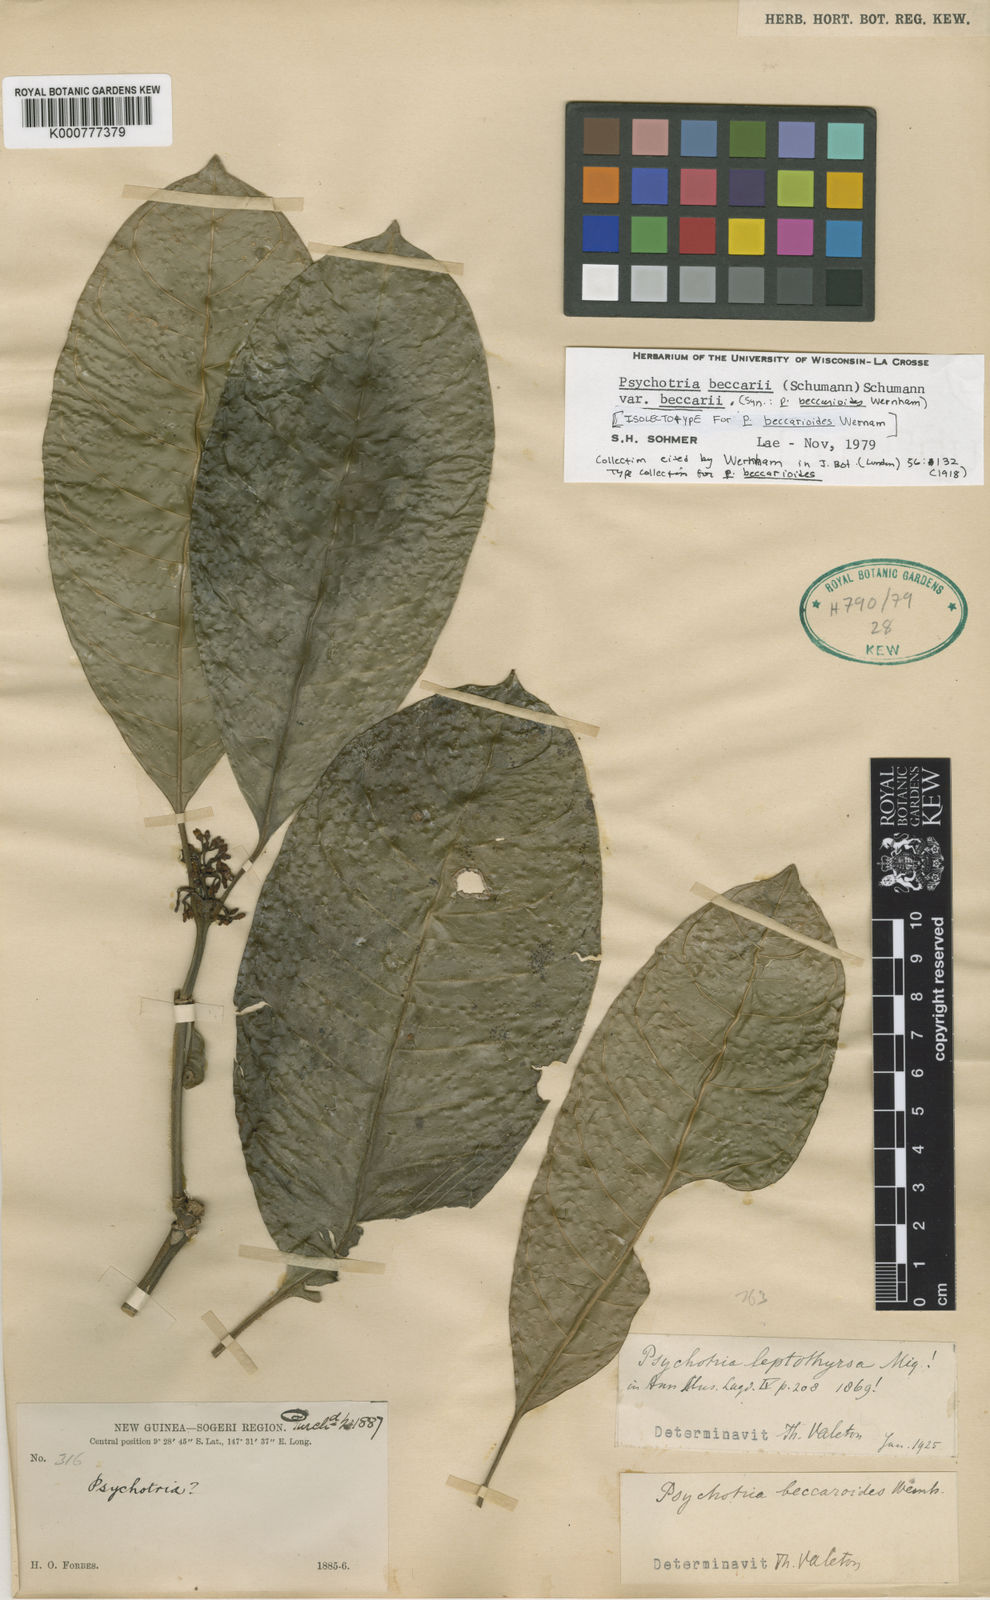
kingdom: Plantae
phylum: Tracheophyta
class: Magnoliopsida
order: Gentianales
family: Rubiaceae
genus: Eumachia
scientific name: Eumachia leptothyrsa
